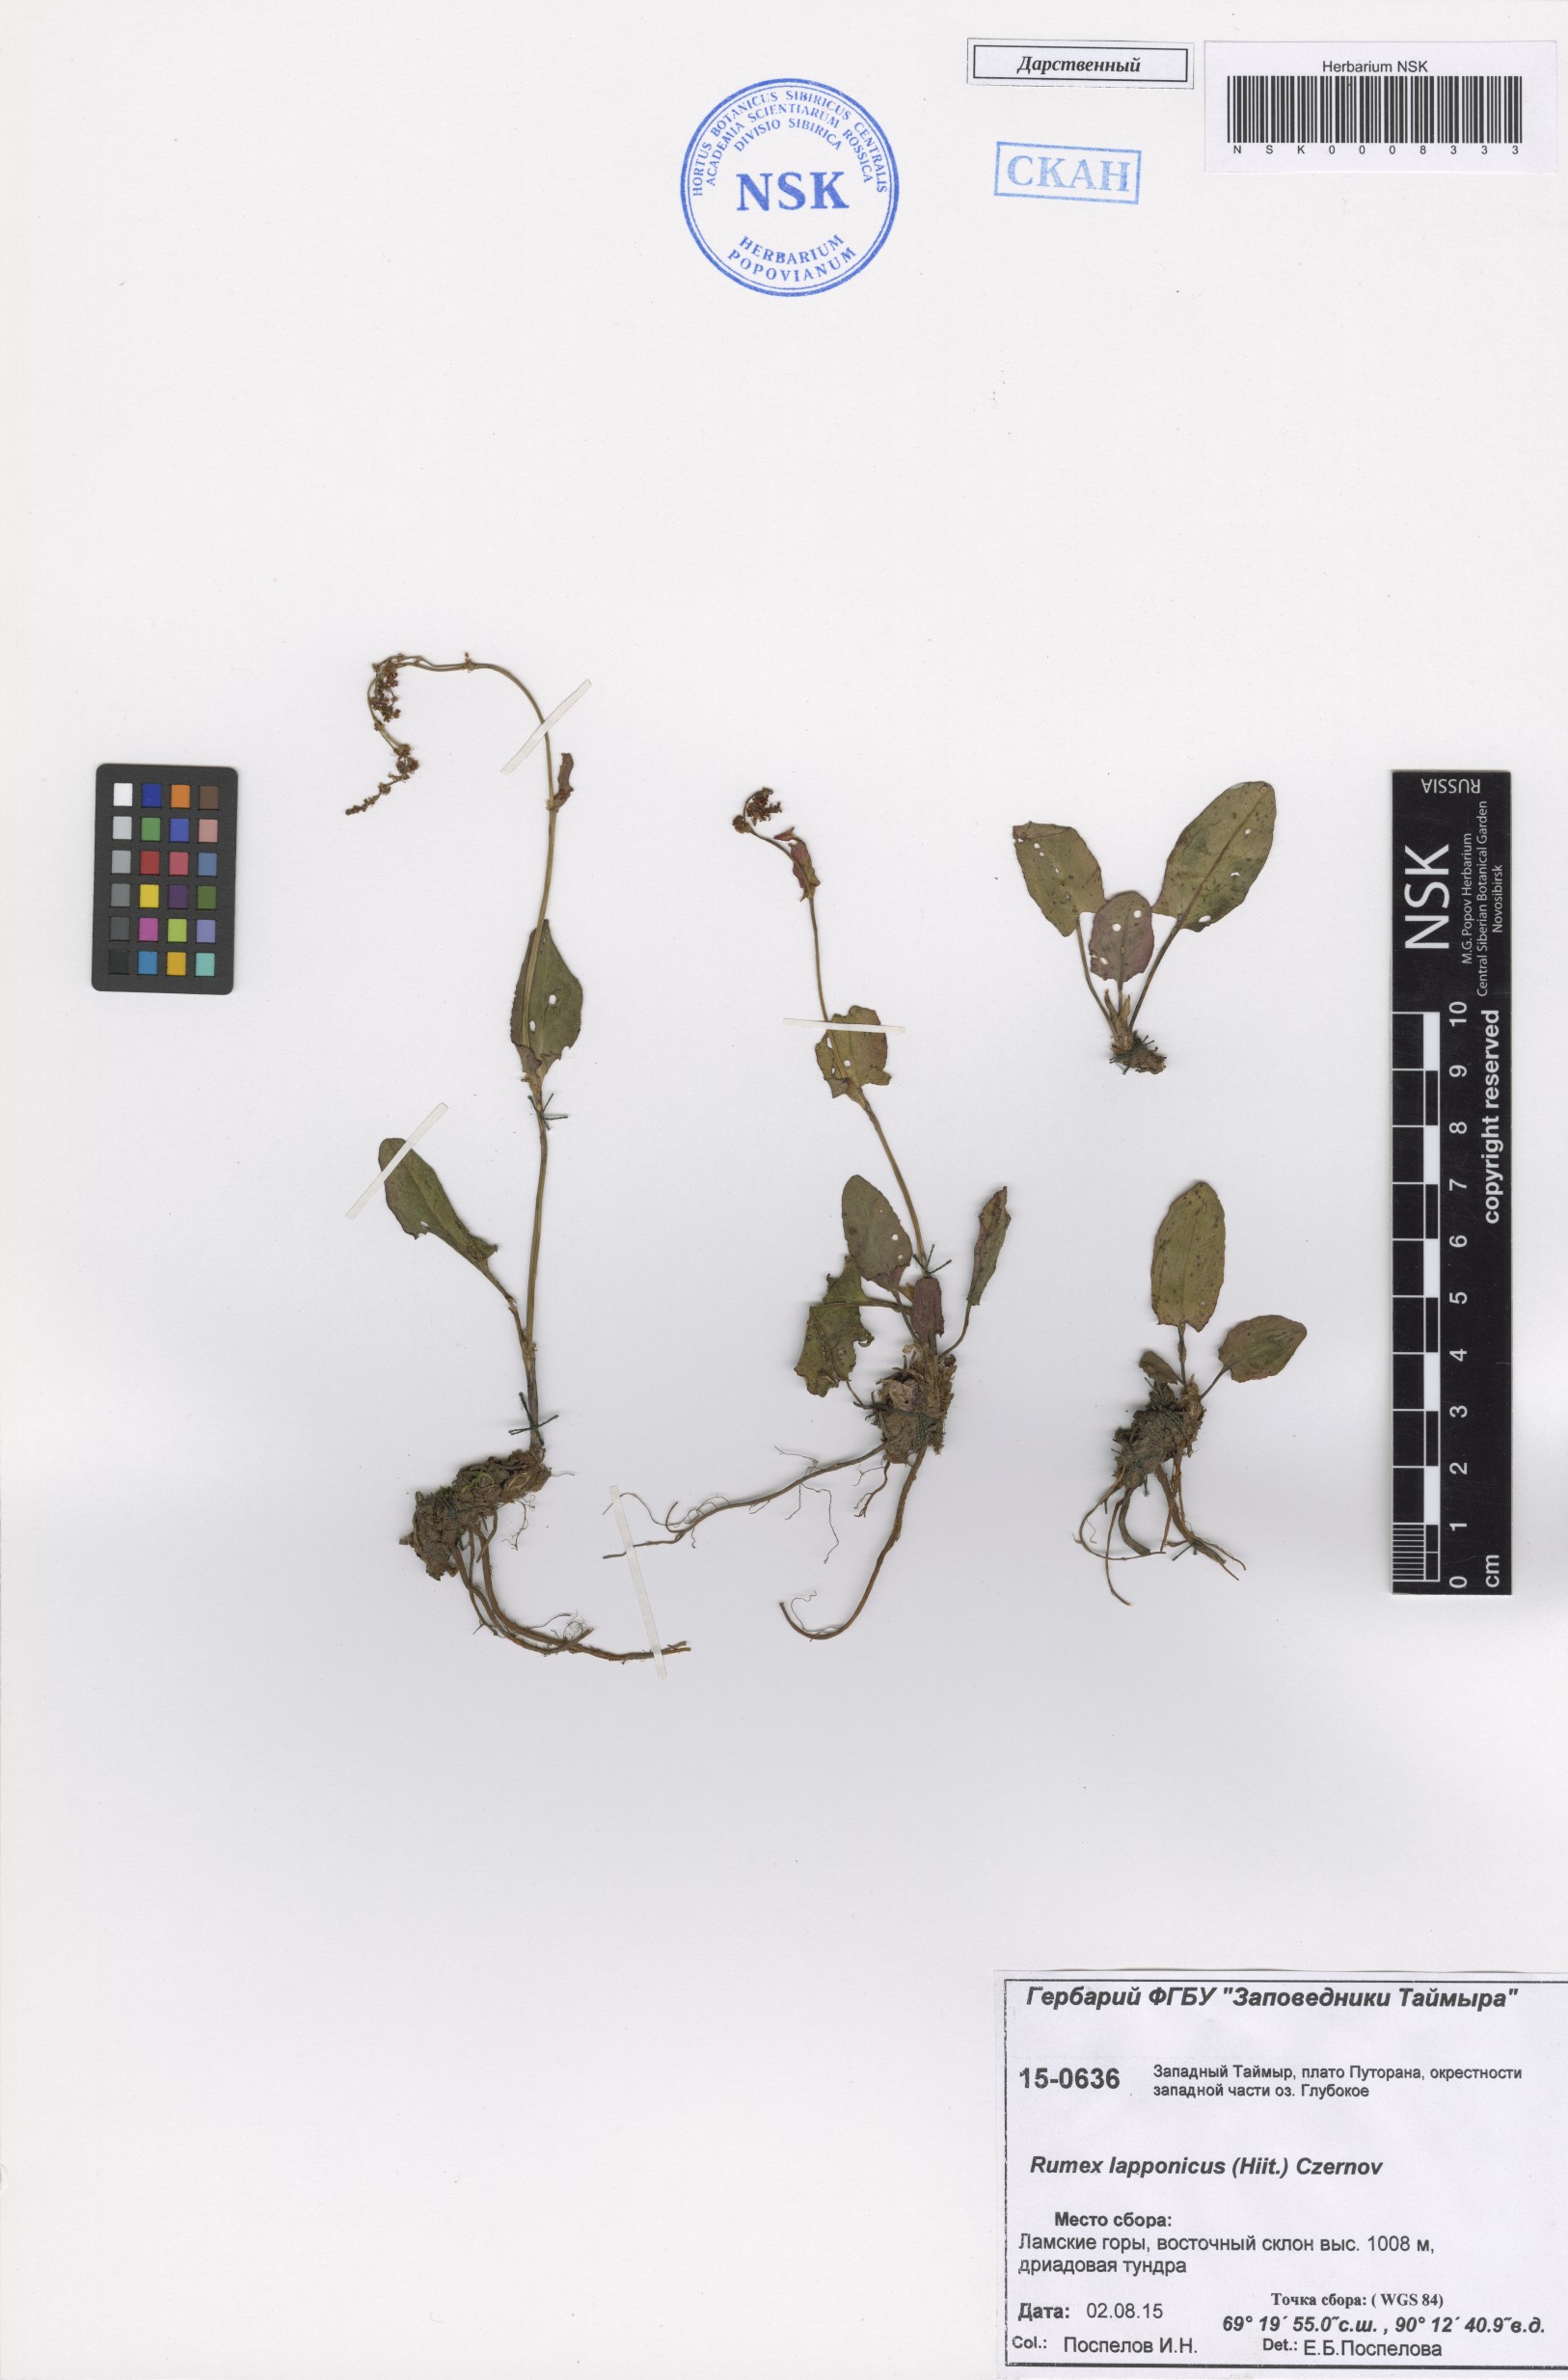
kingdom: Plantae
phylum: Tracheophyta
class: Magnoliopsida
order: Caryophyllales
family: Polygonaceae
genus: Rumex
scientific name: Rumex lapponicus
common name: Lapland mountain sorrel
